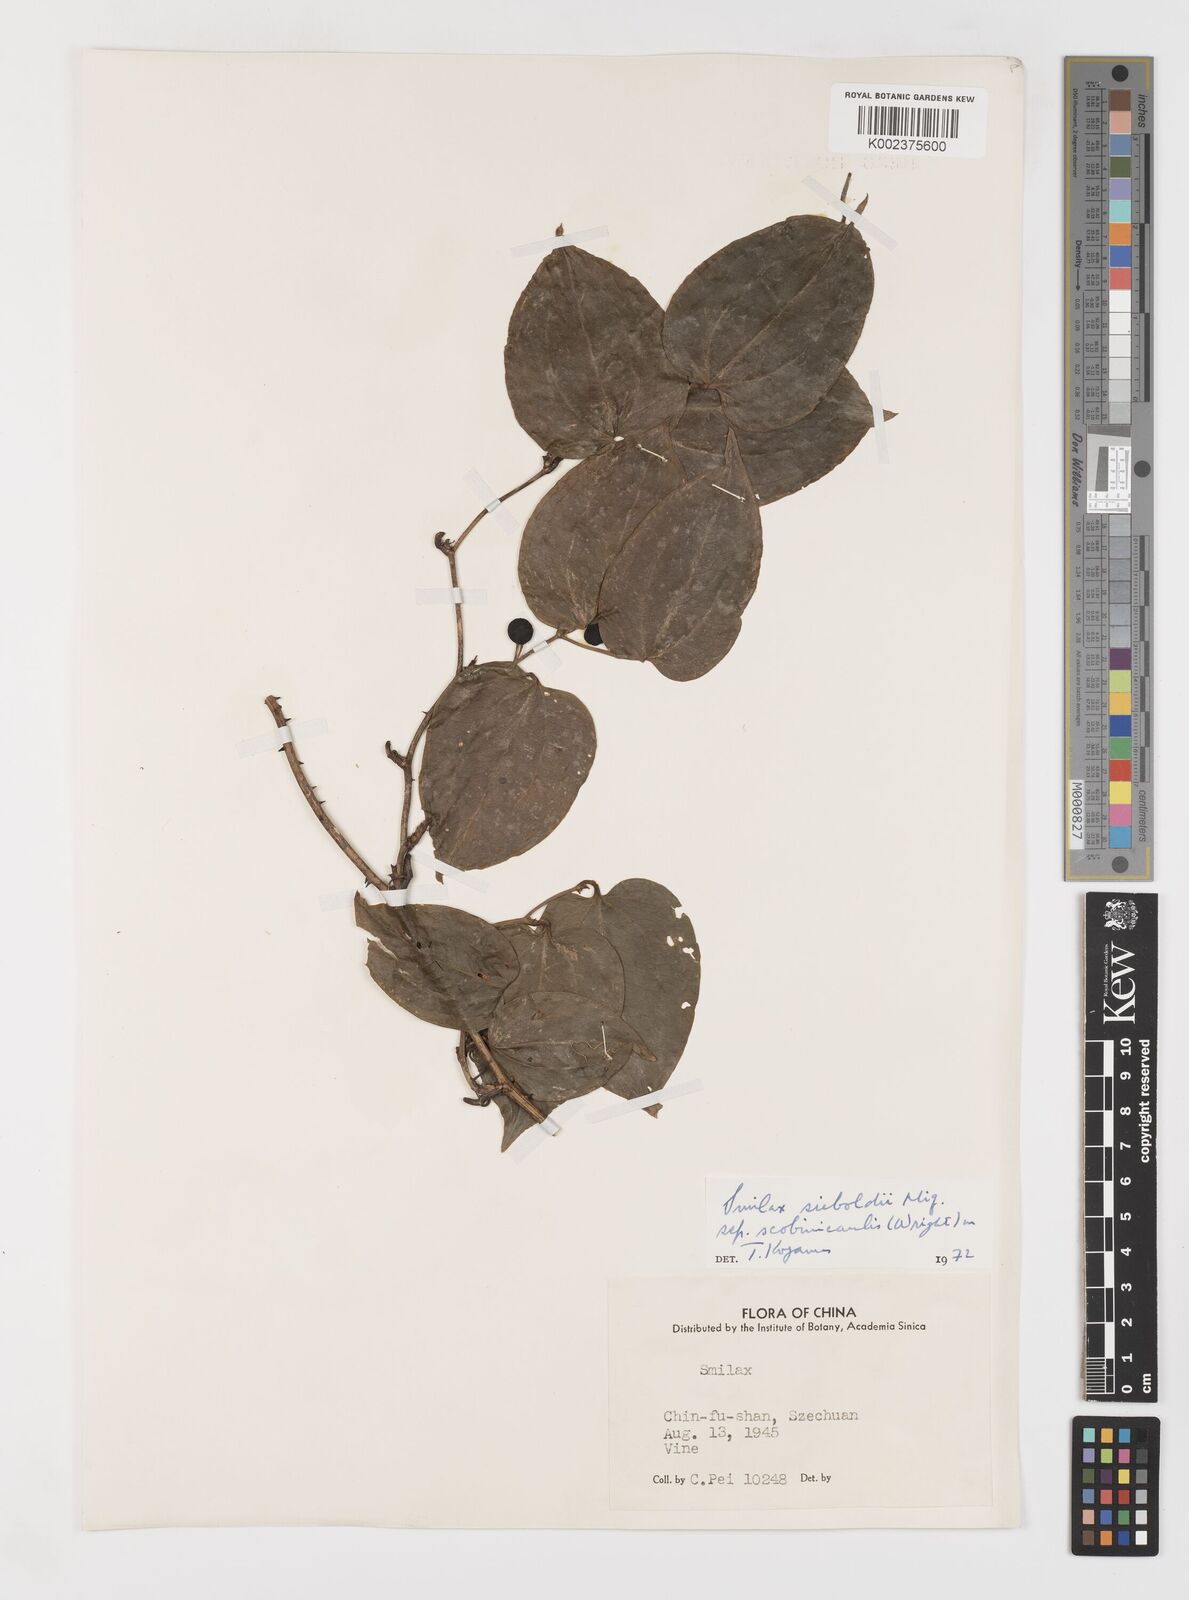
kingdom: Plantae
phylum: Tracheophyta
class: Liliopsida
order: Liliales
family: Smilacaceae
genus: Smilax
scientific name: Smilax sieboldii
